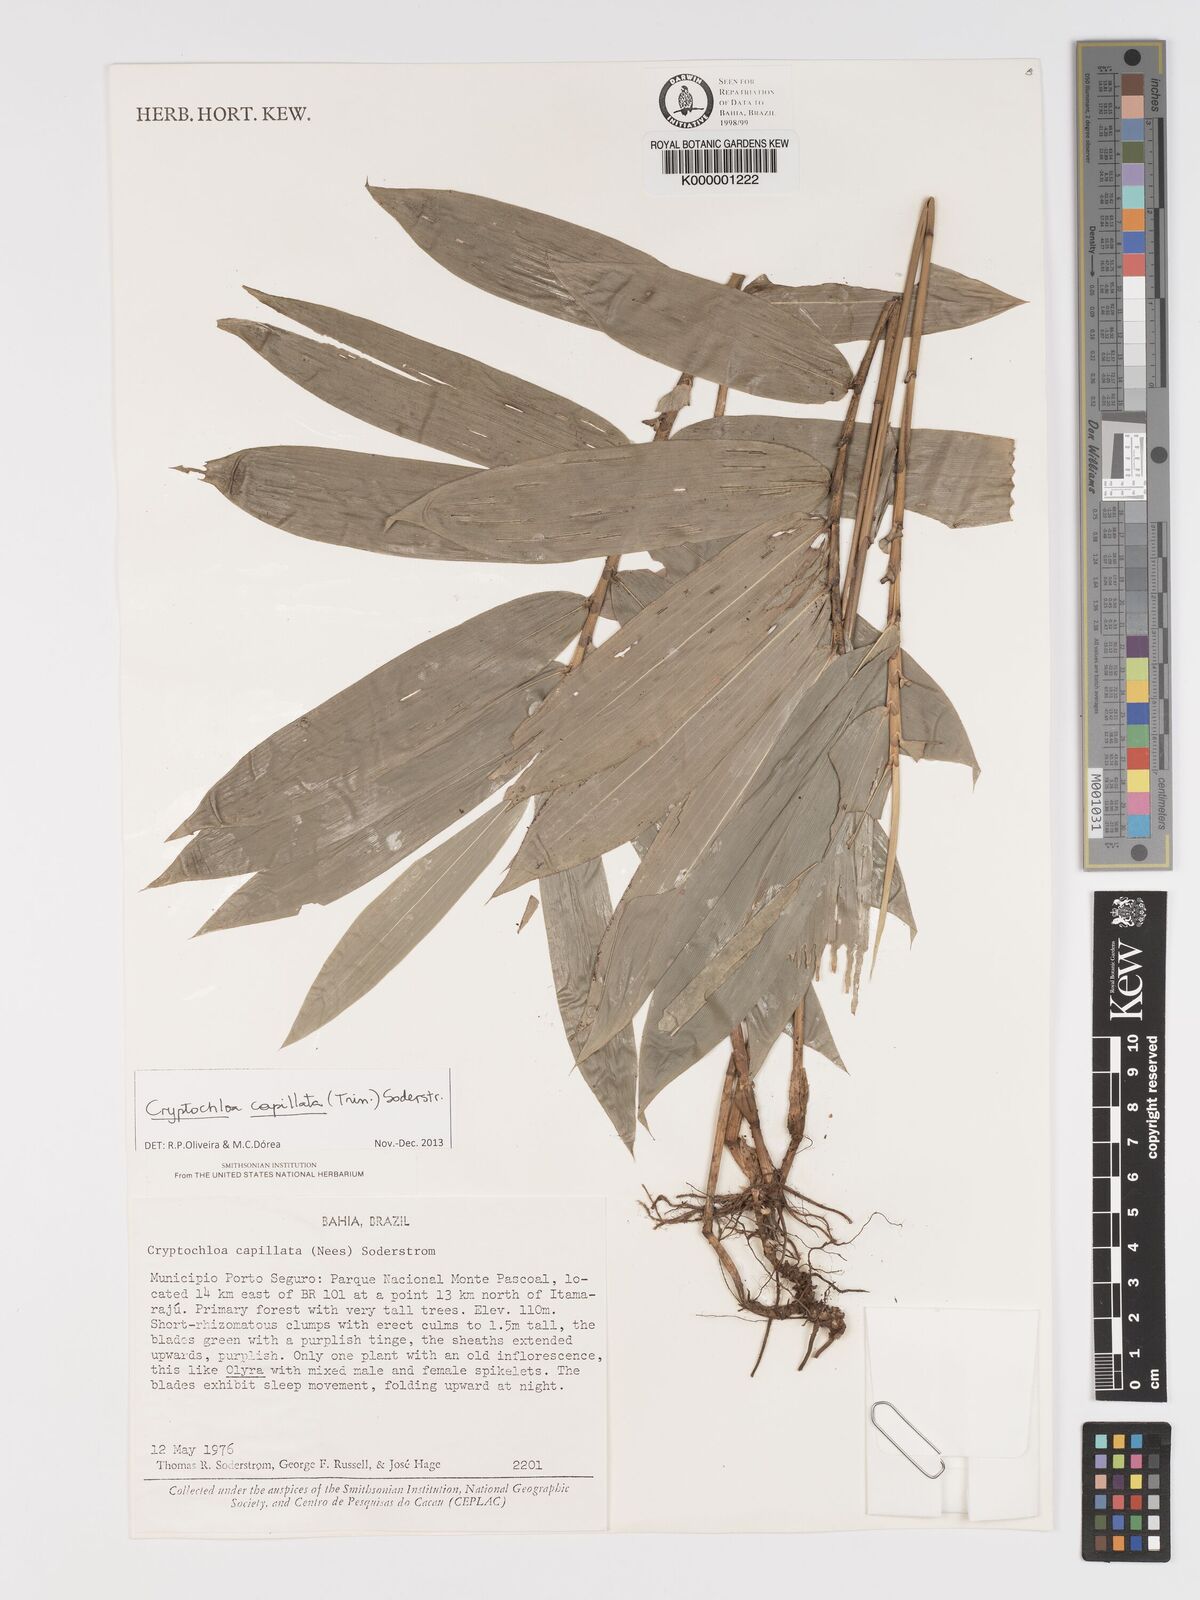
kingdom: Plantae
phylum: Tracheophyta
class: Liliopsida
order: Poales
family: Poaceae
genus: Cryptochloa
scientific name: Cryptochloa capillata
